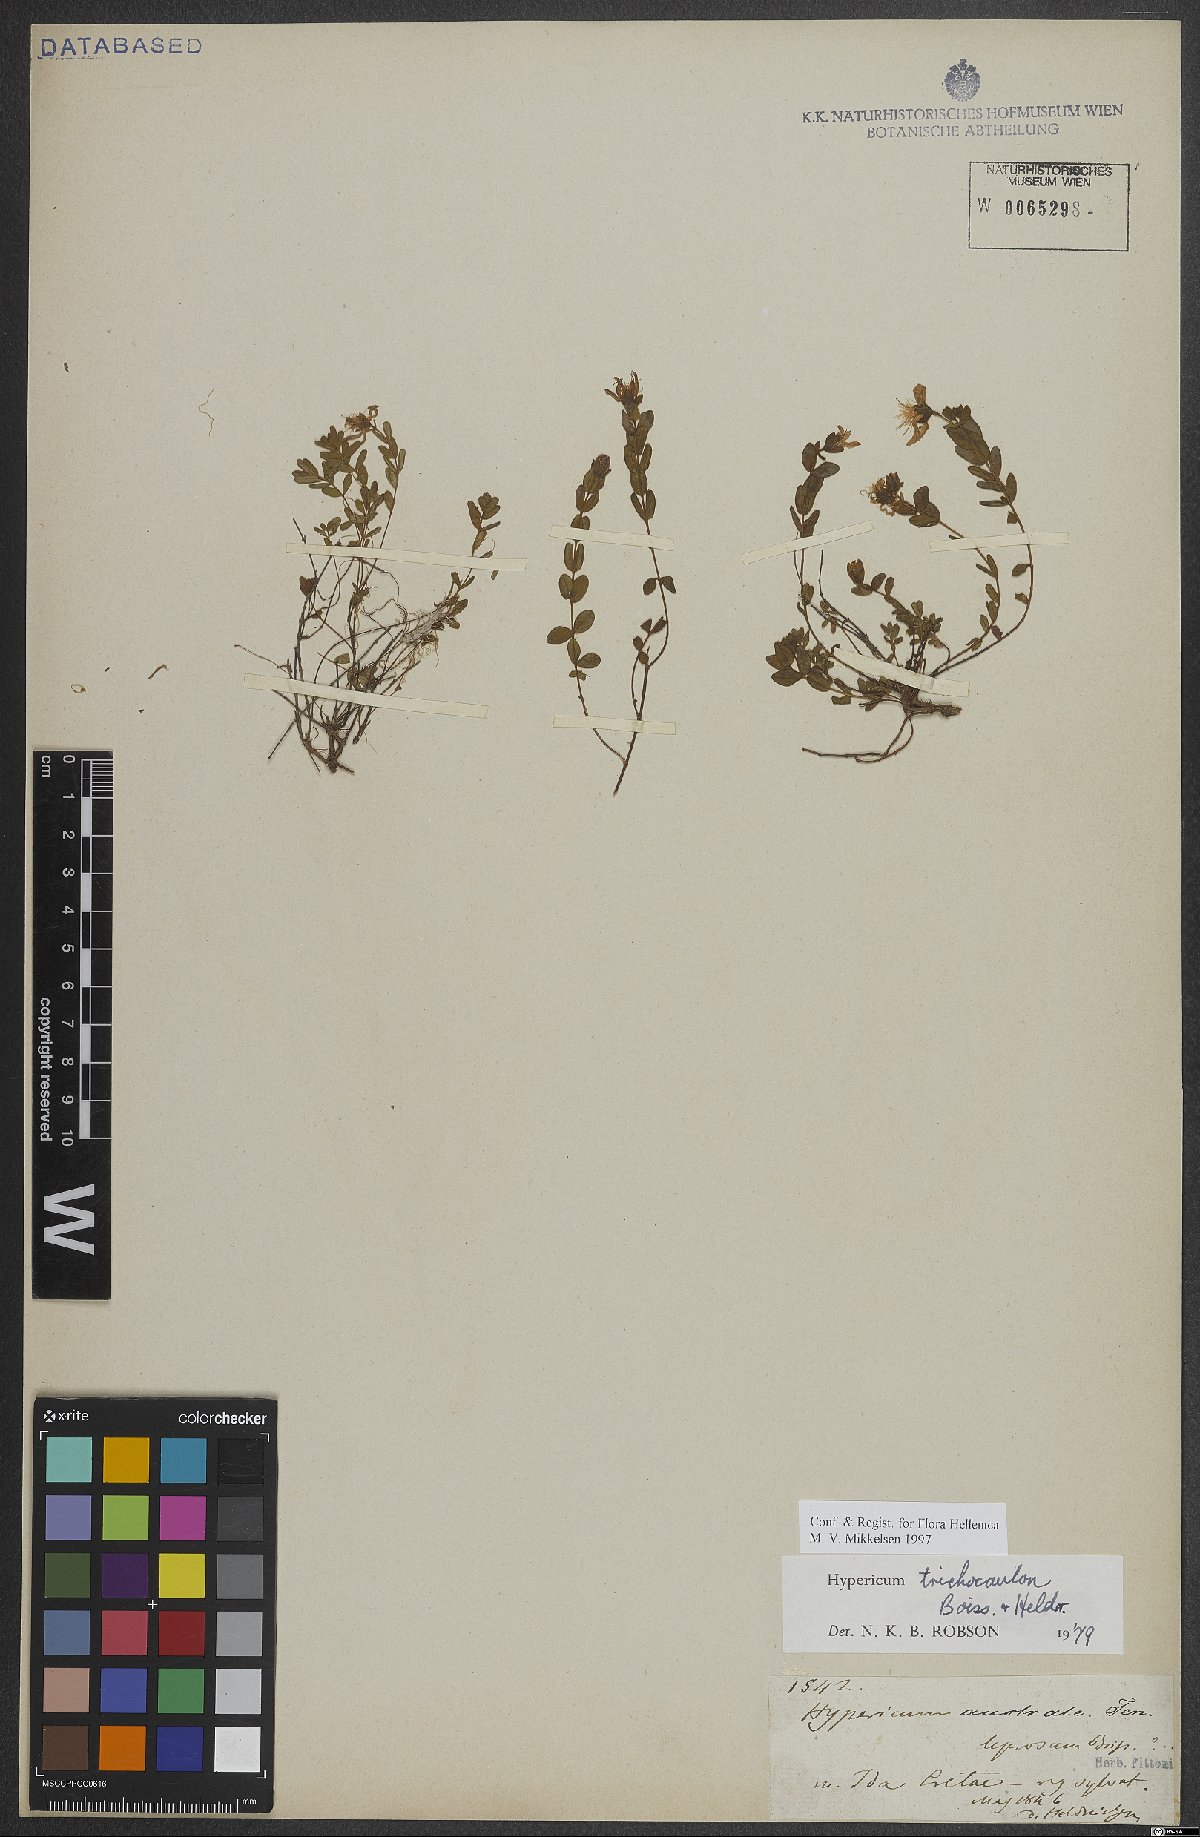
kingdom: Plantae
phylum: Tracheophyta
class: Magnoliopsida
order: Malpighiales
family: Hypericaceae
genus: Hypericum
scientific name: Hypericum trichocaulon
